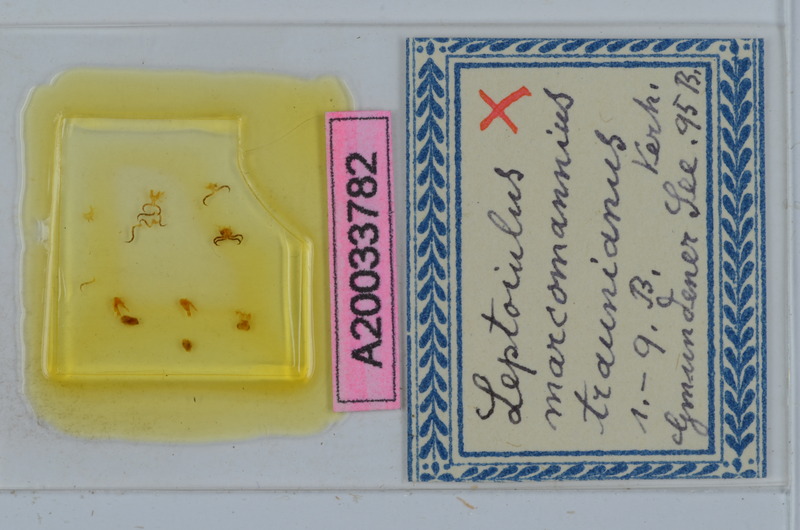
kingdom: Animalia
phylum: Arthropoda
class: Diplopoda
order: Julida
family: Julidae
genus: Leptoiulus
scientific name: Leptoiulus simplex
